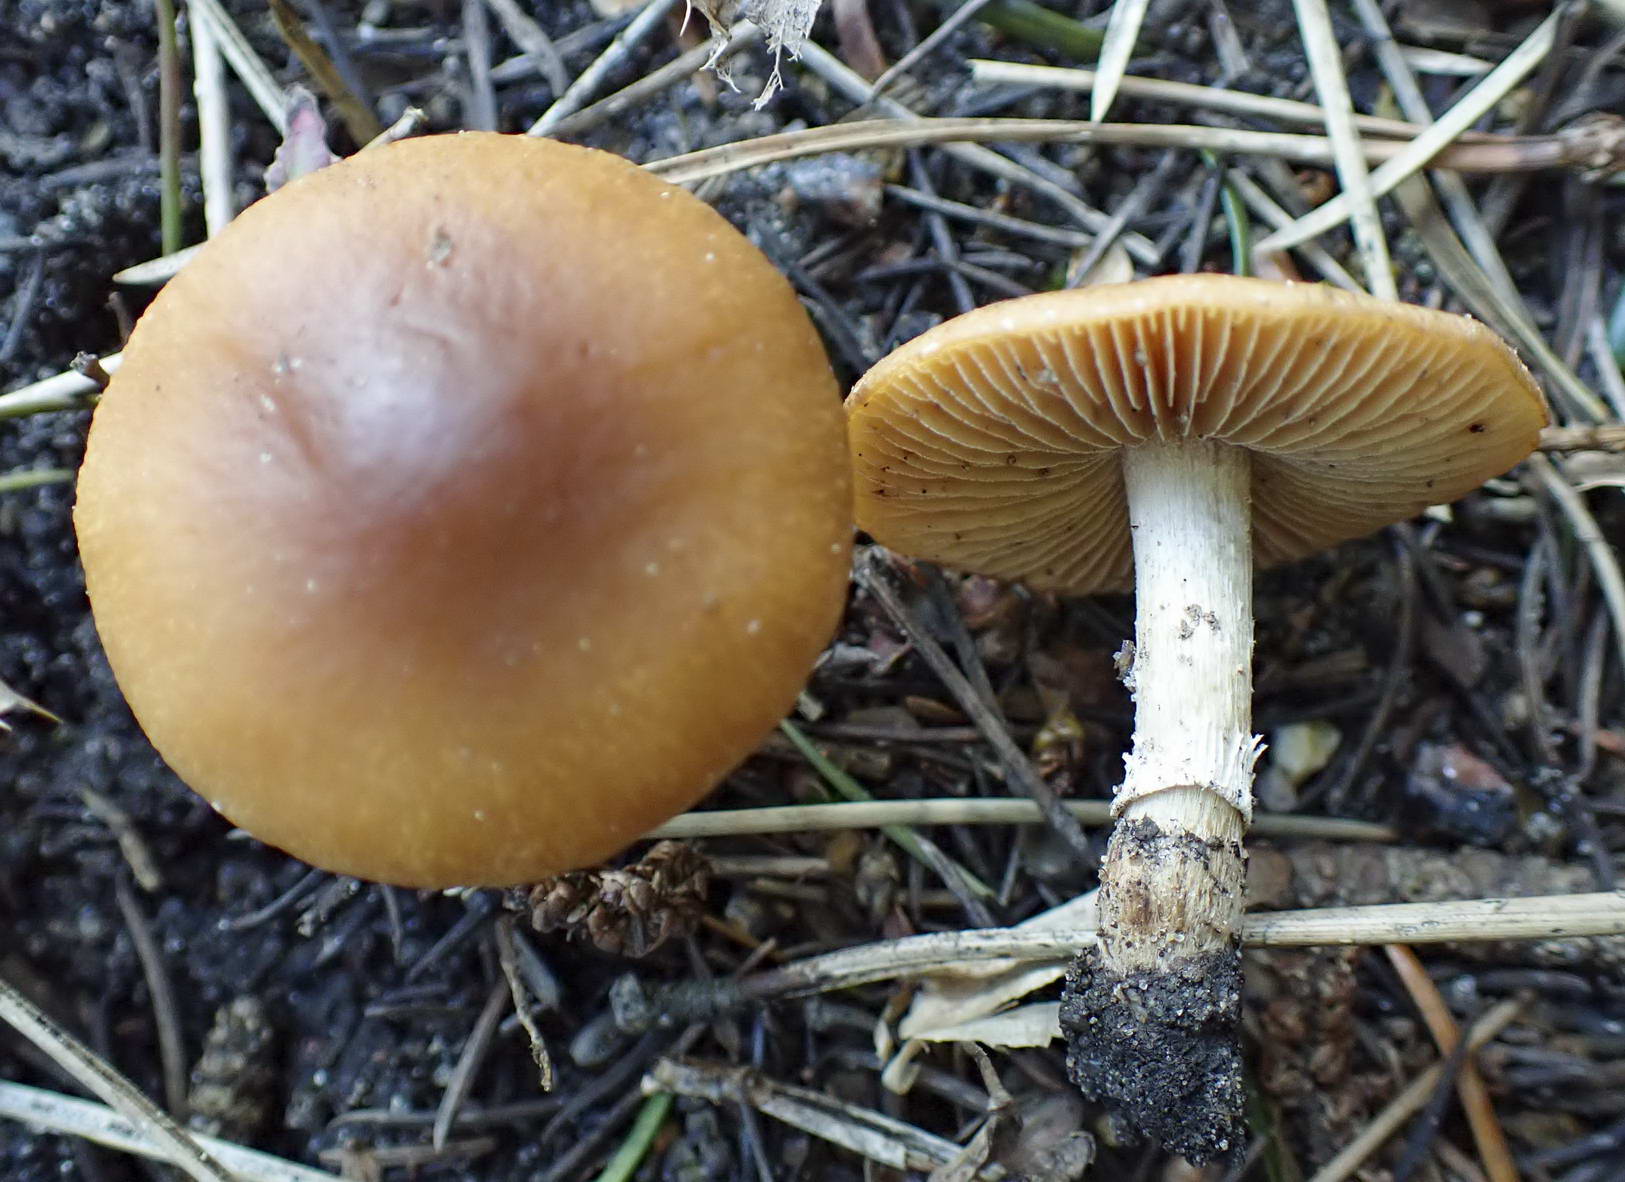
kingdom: Fungi
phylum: Basidiomycota
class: Agaricomycetes
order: Agaricales
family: Bolbitiaceae
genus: Conocybe
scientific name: Conocybe aporos
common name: tidlig dansehat
